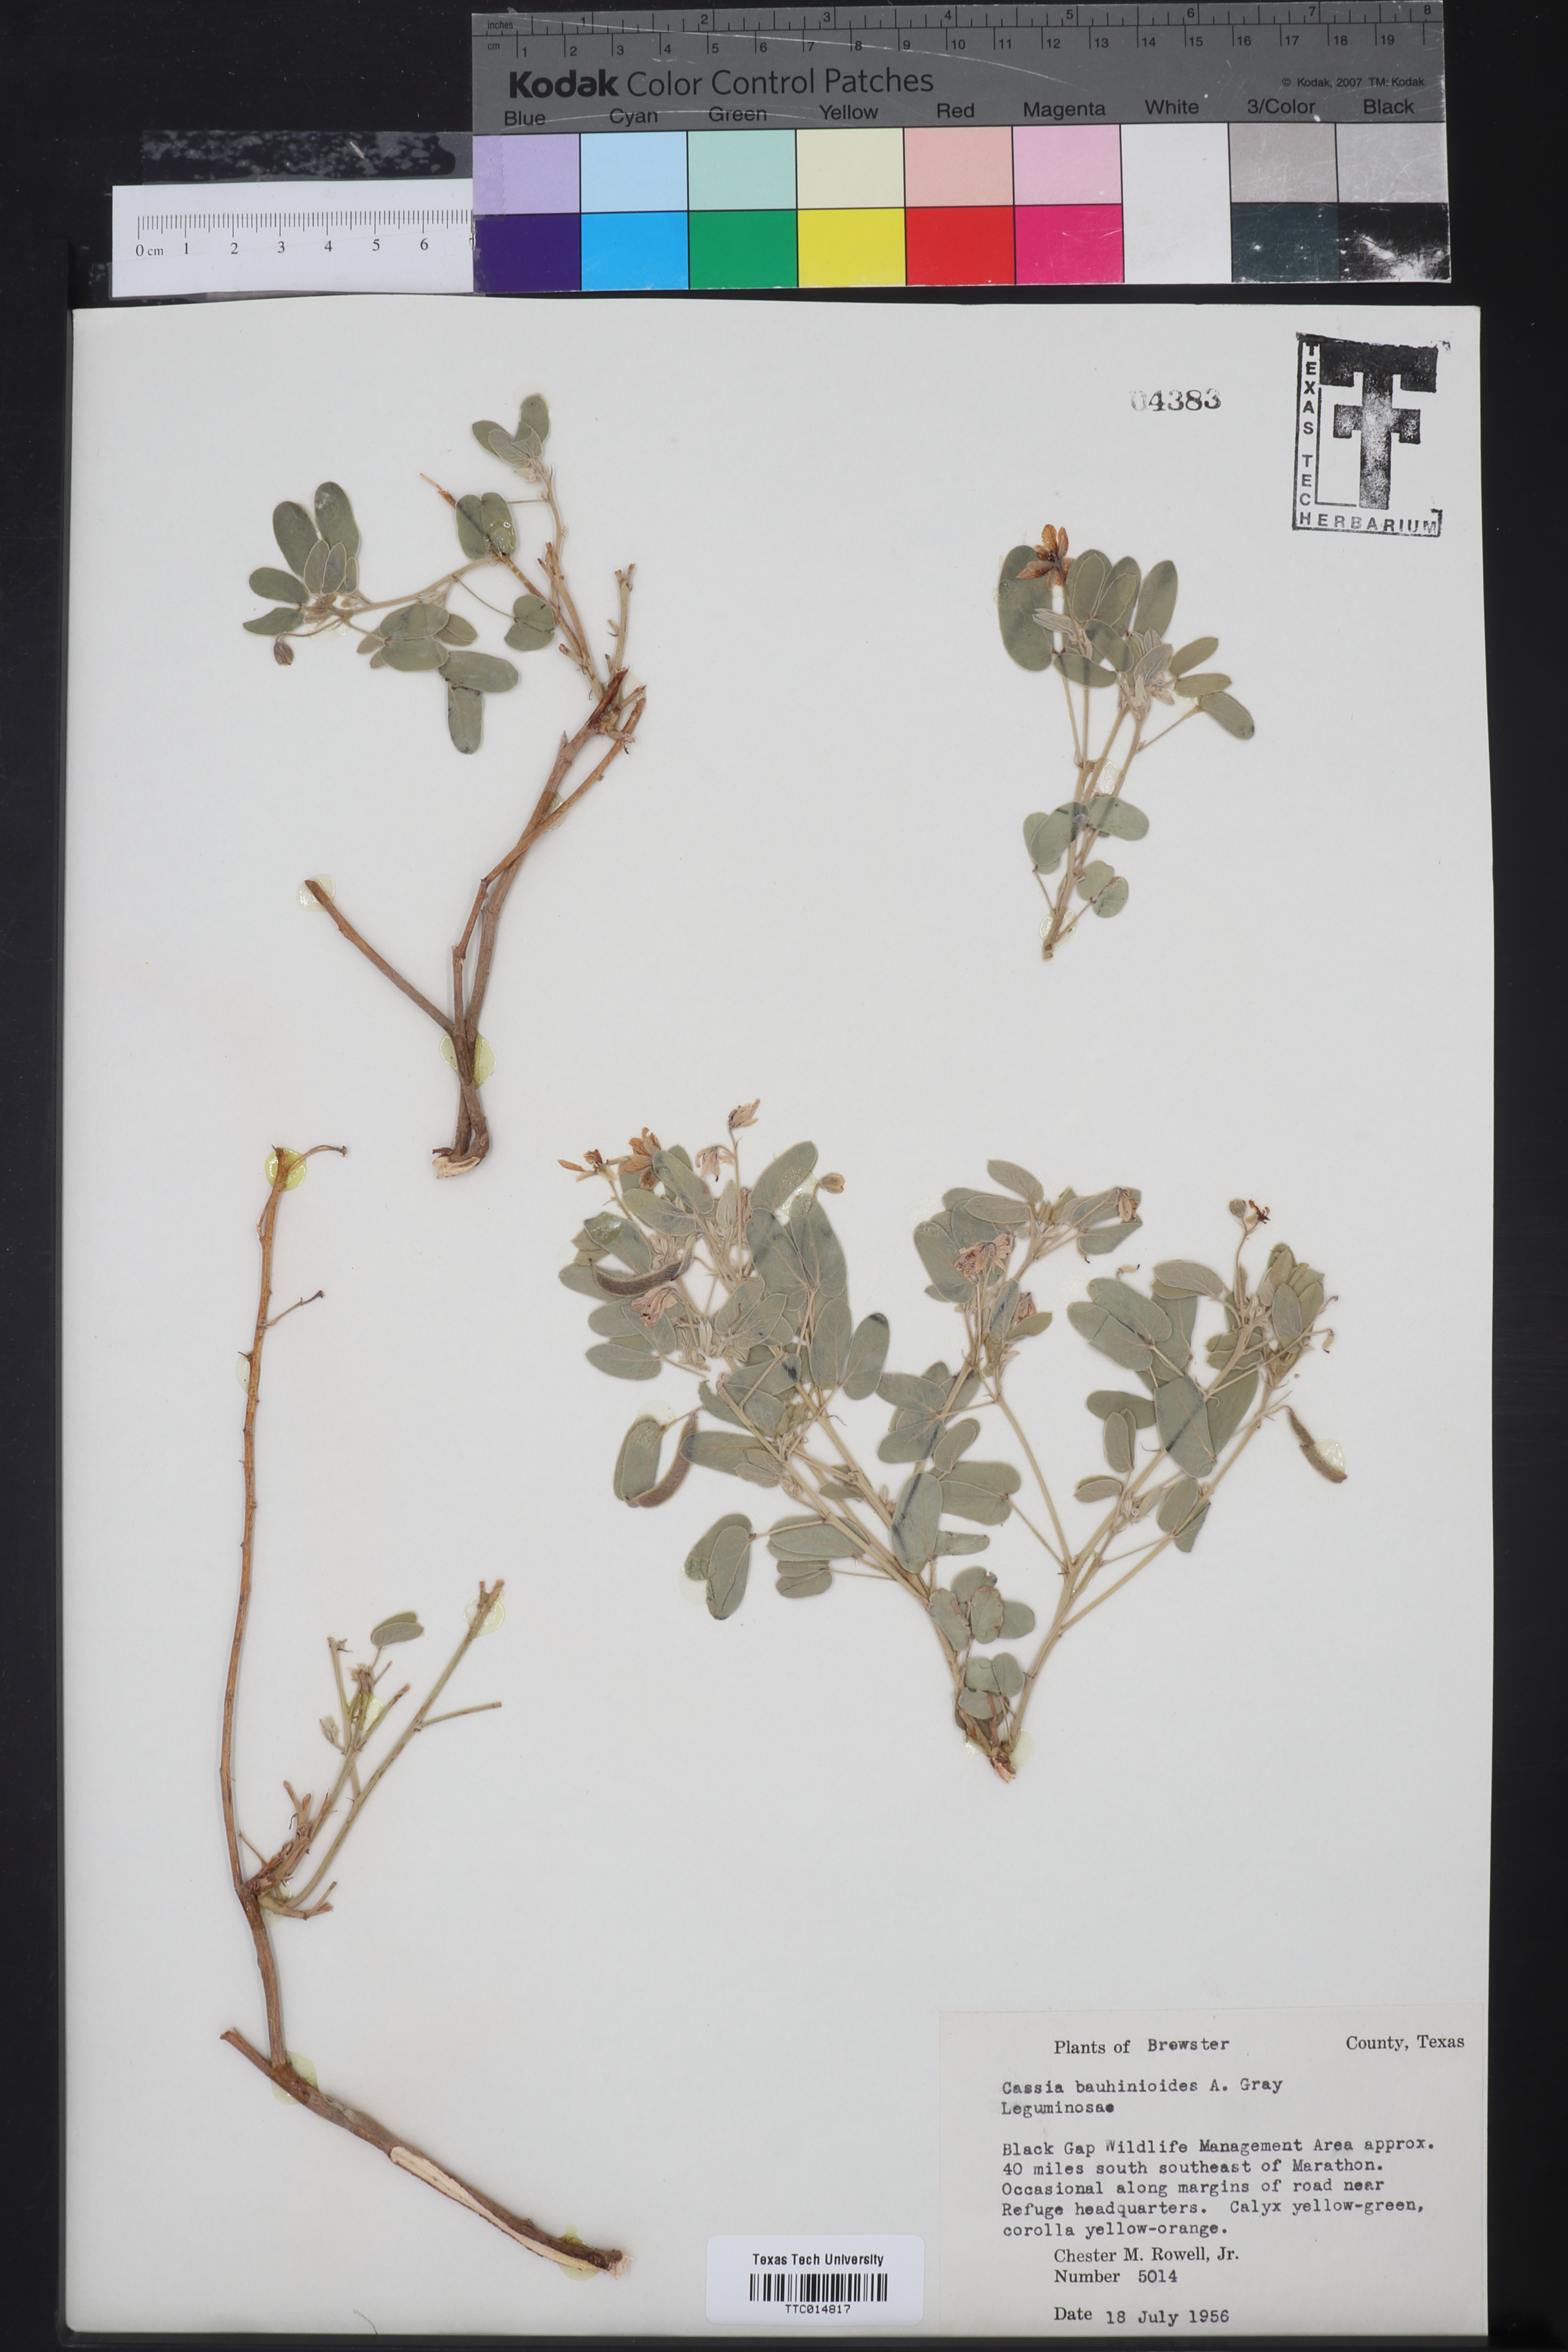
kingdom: Plantae
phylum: Tracheophyta
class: Magnoliopsida
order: Fabales
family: Fabaceae
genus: Senna
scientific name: Senna bauhinioides
